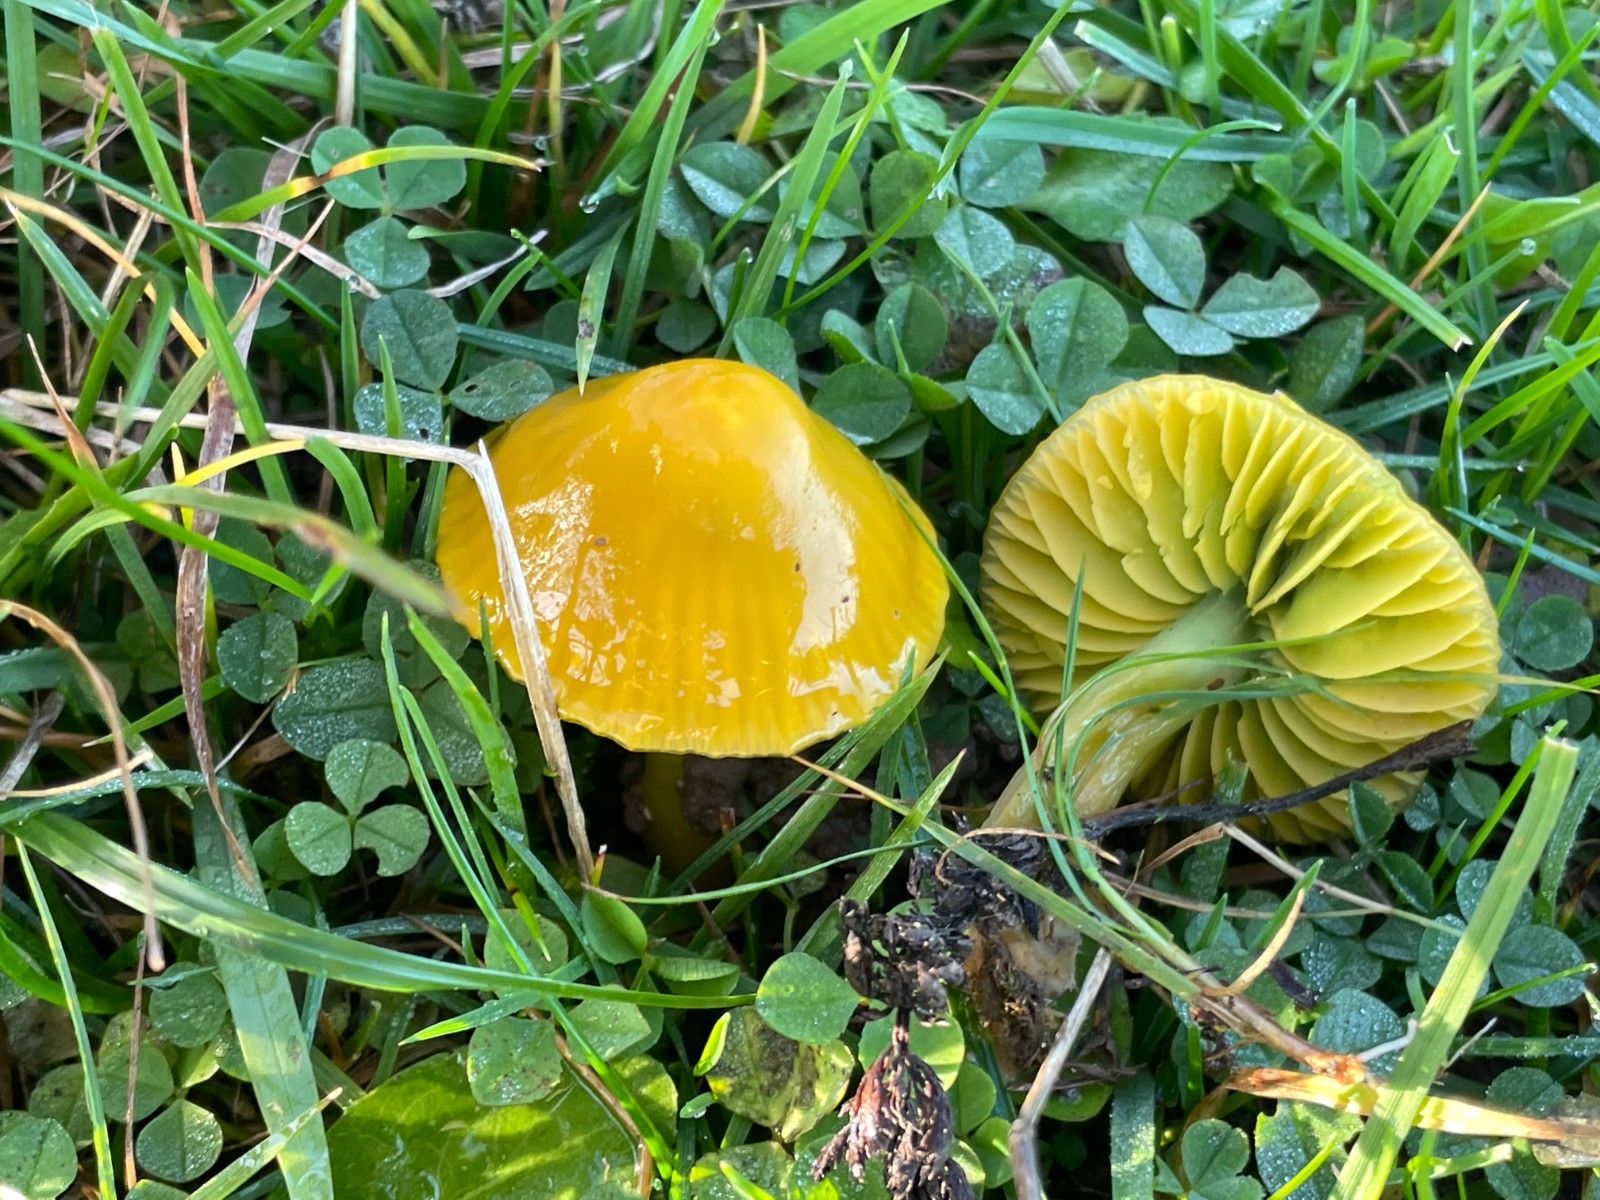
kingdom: Fungi
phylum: Basidiomycota
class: Agaricomycetes
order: Agaricales
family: Hygrophoraceae
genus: Gliophorus
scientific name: Gliophorus psittacinus
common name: papegøje-vokshat
